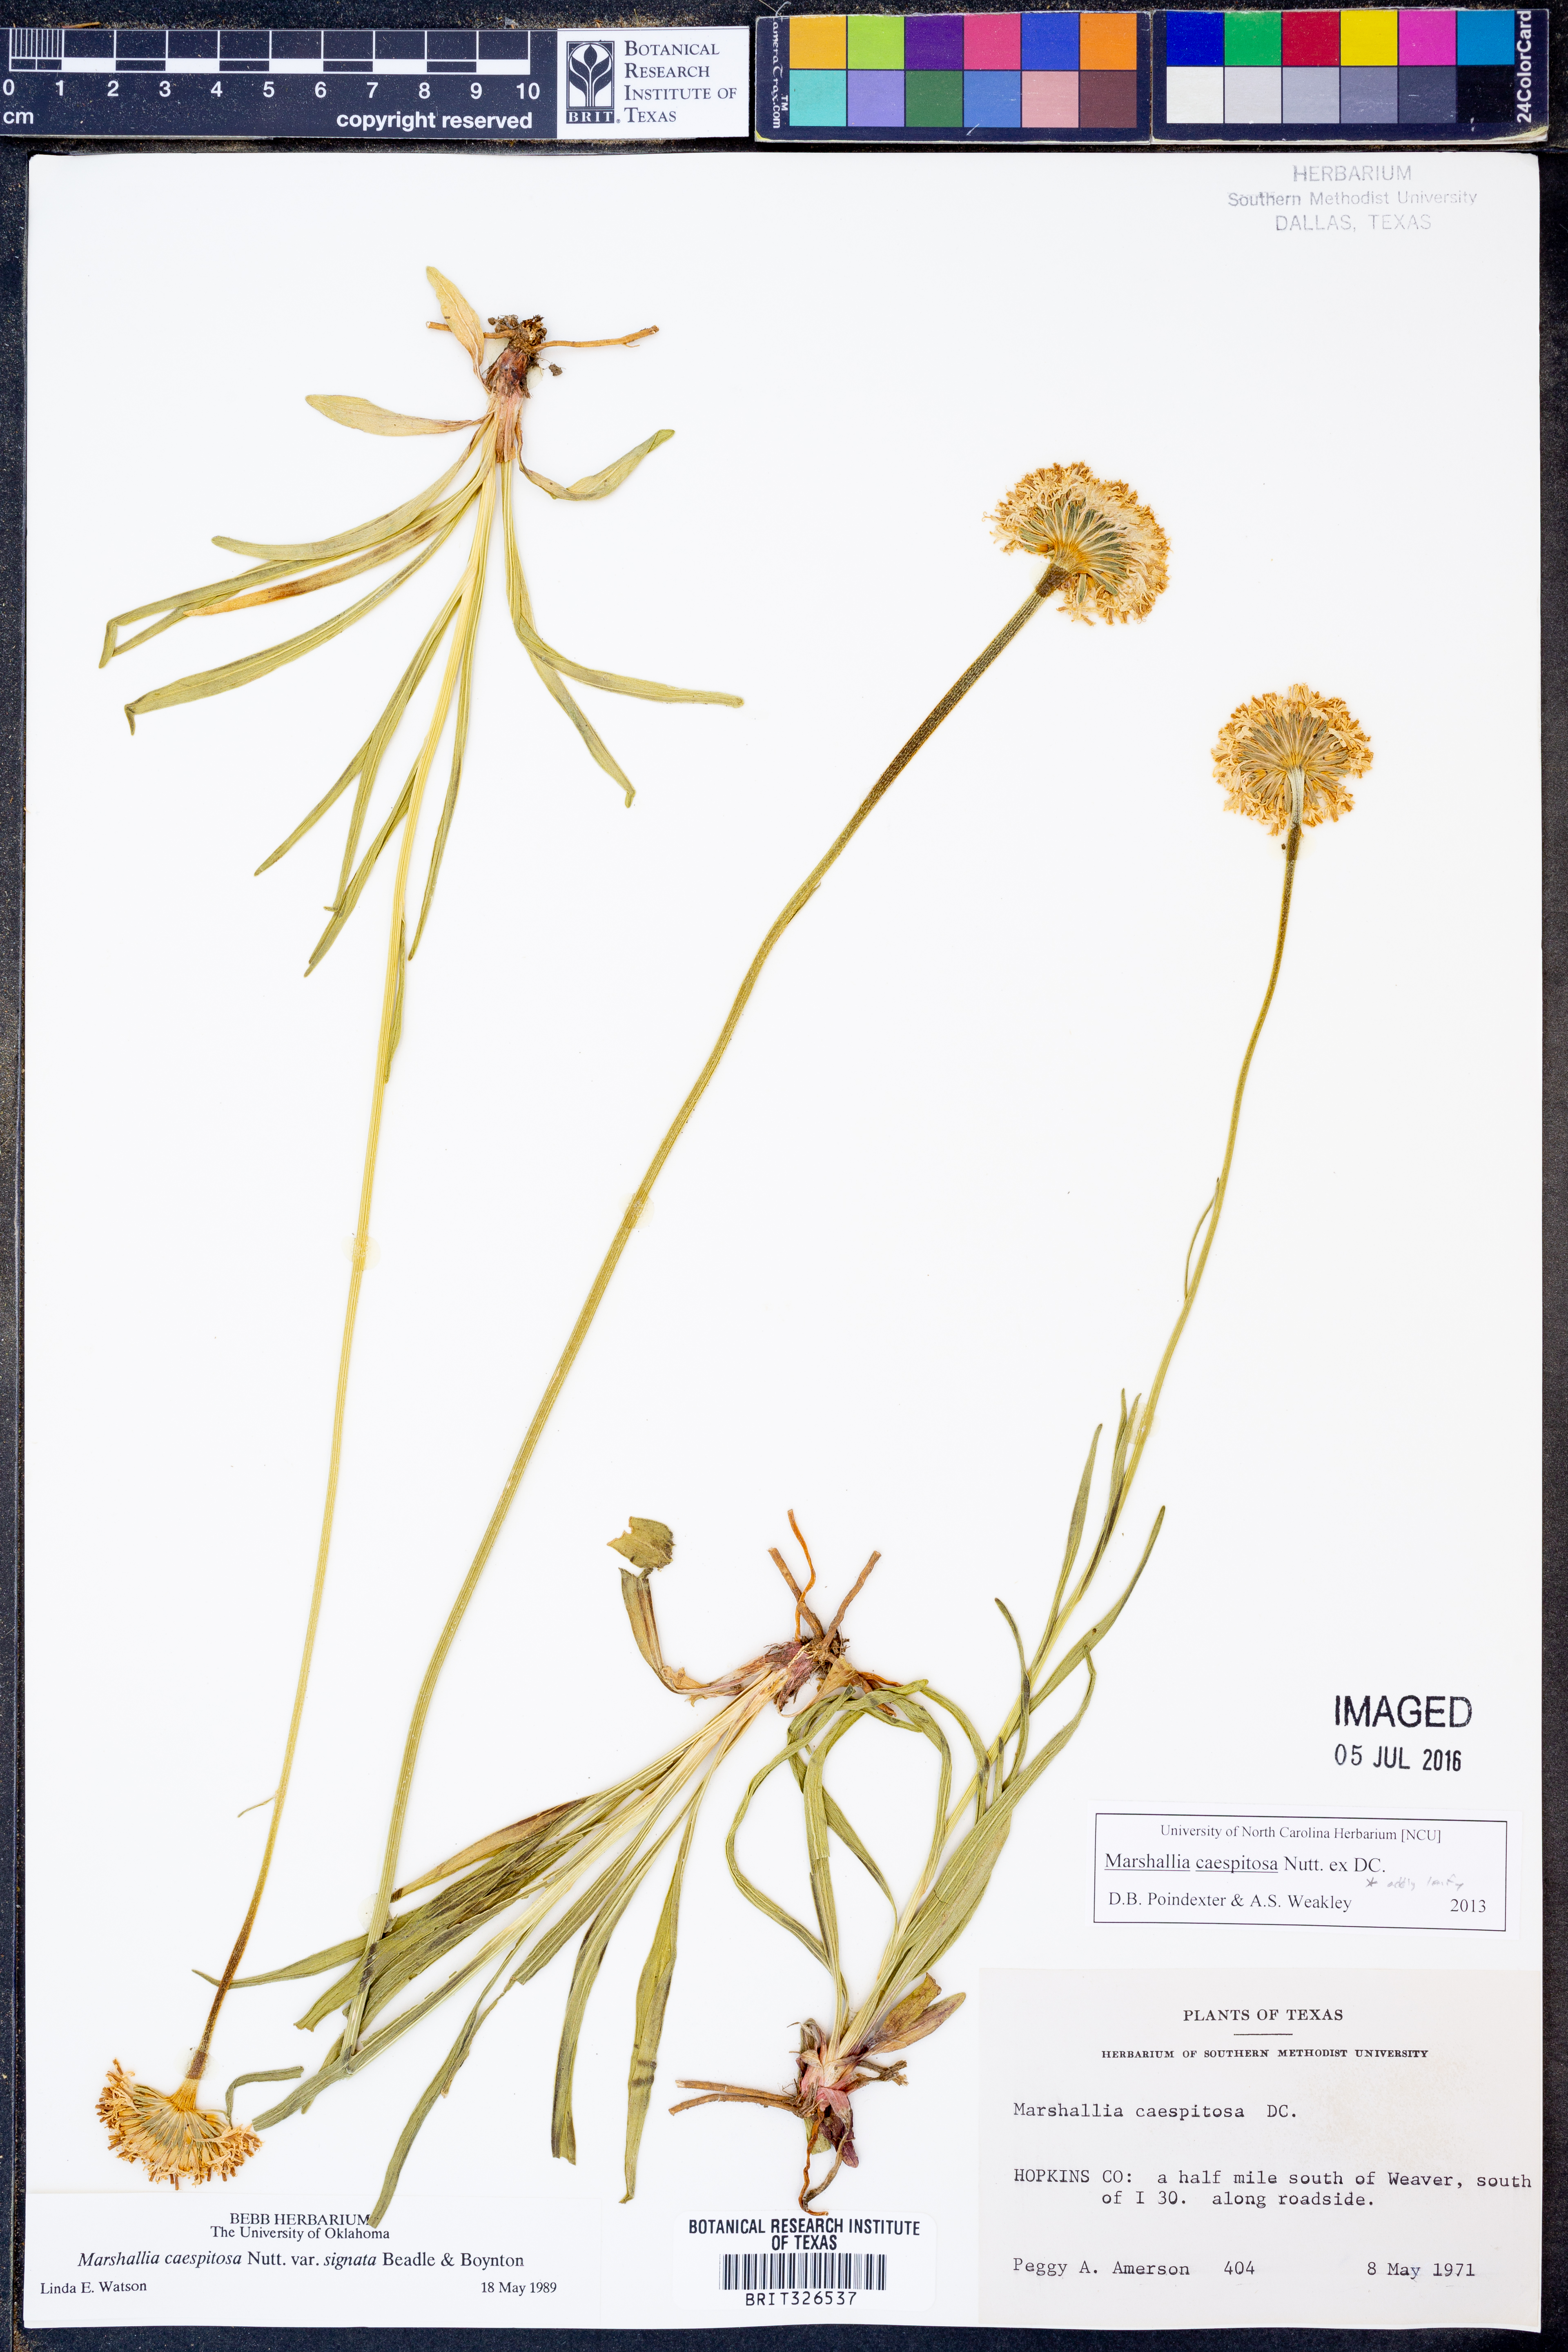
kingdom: Plantae
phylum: Tracheophyta
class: Magnoliopsida
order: Asterales
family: Asteraceae
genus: Marshallia
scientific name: Marshallia caespitosa
